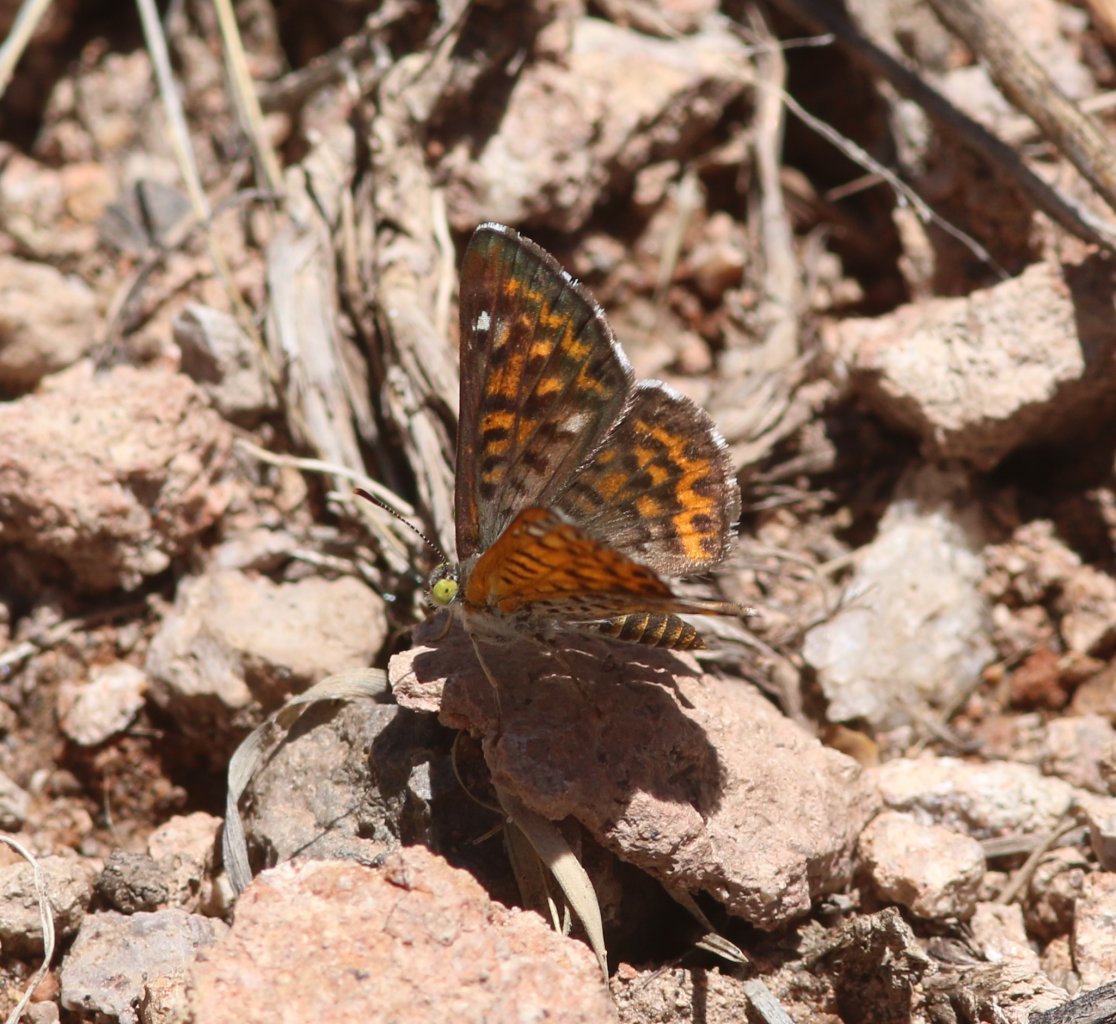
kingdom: Animalia
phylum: Arthropoda
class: Insecta
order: Lepidoptera
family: Riodinidae
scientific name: Riodinidae
